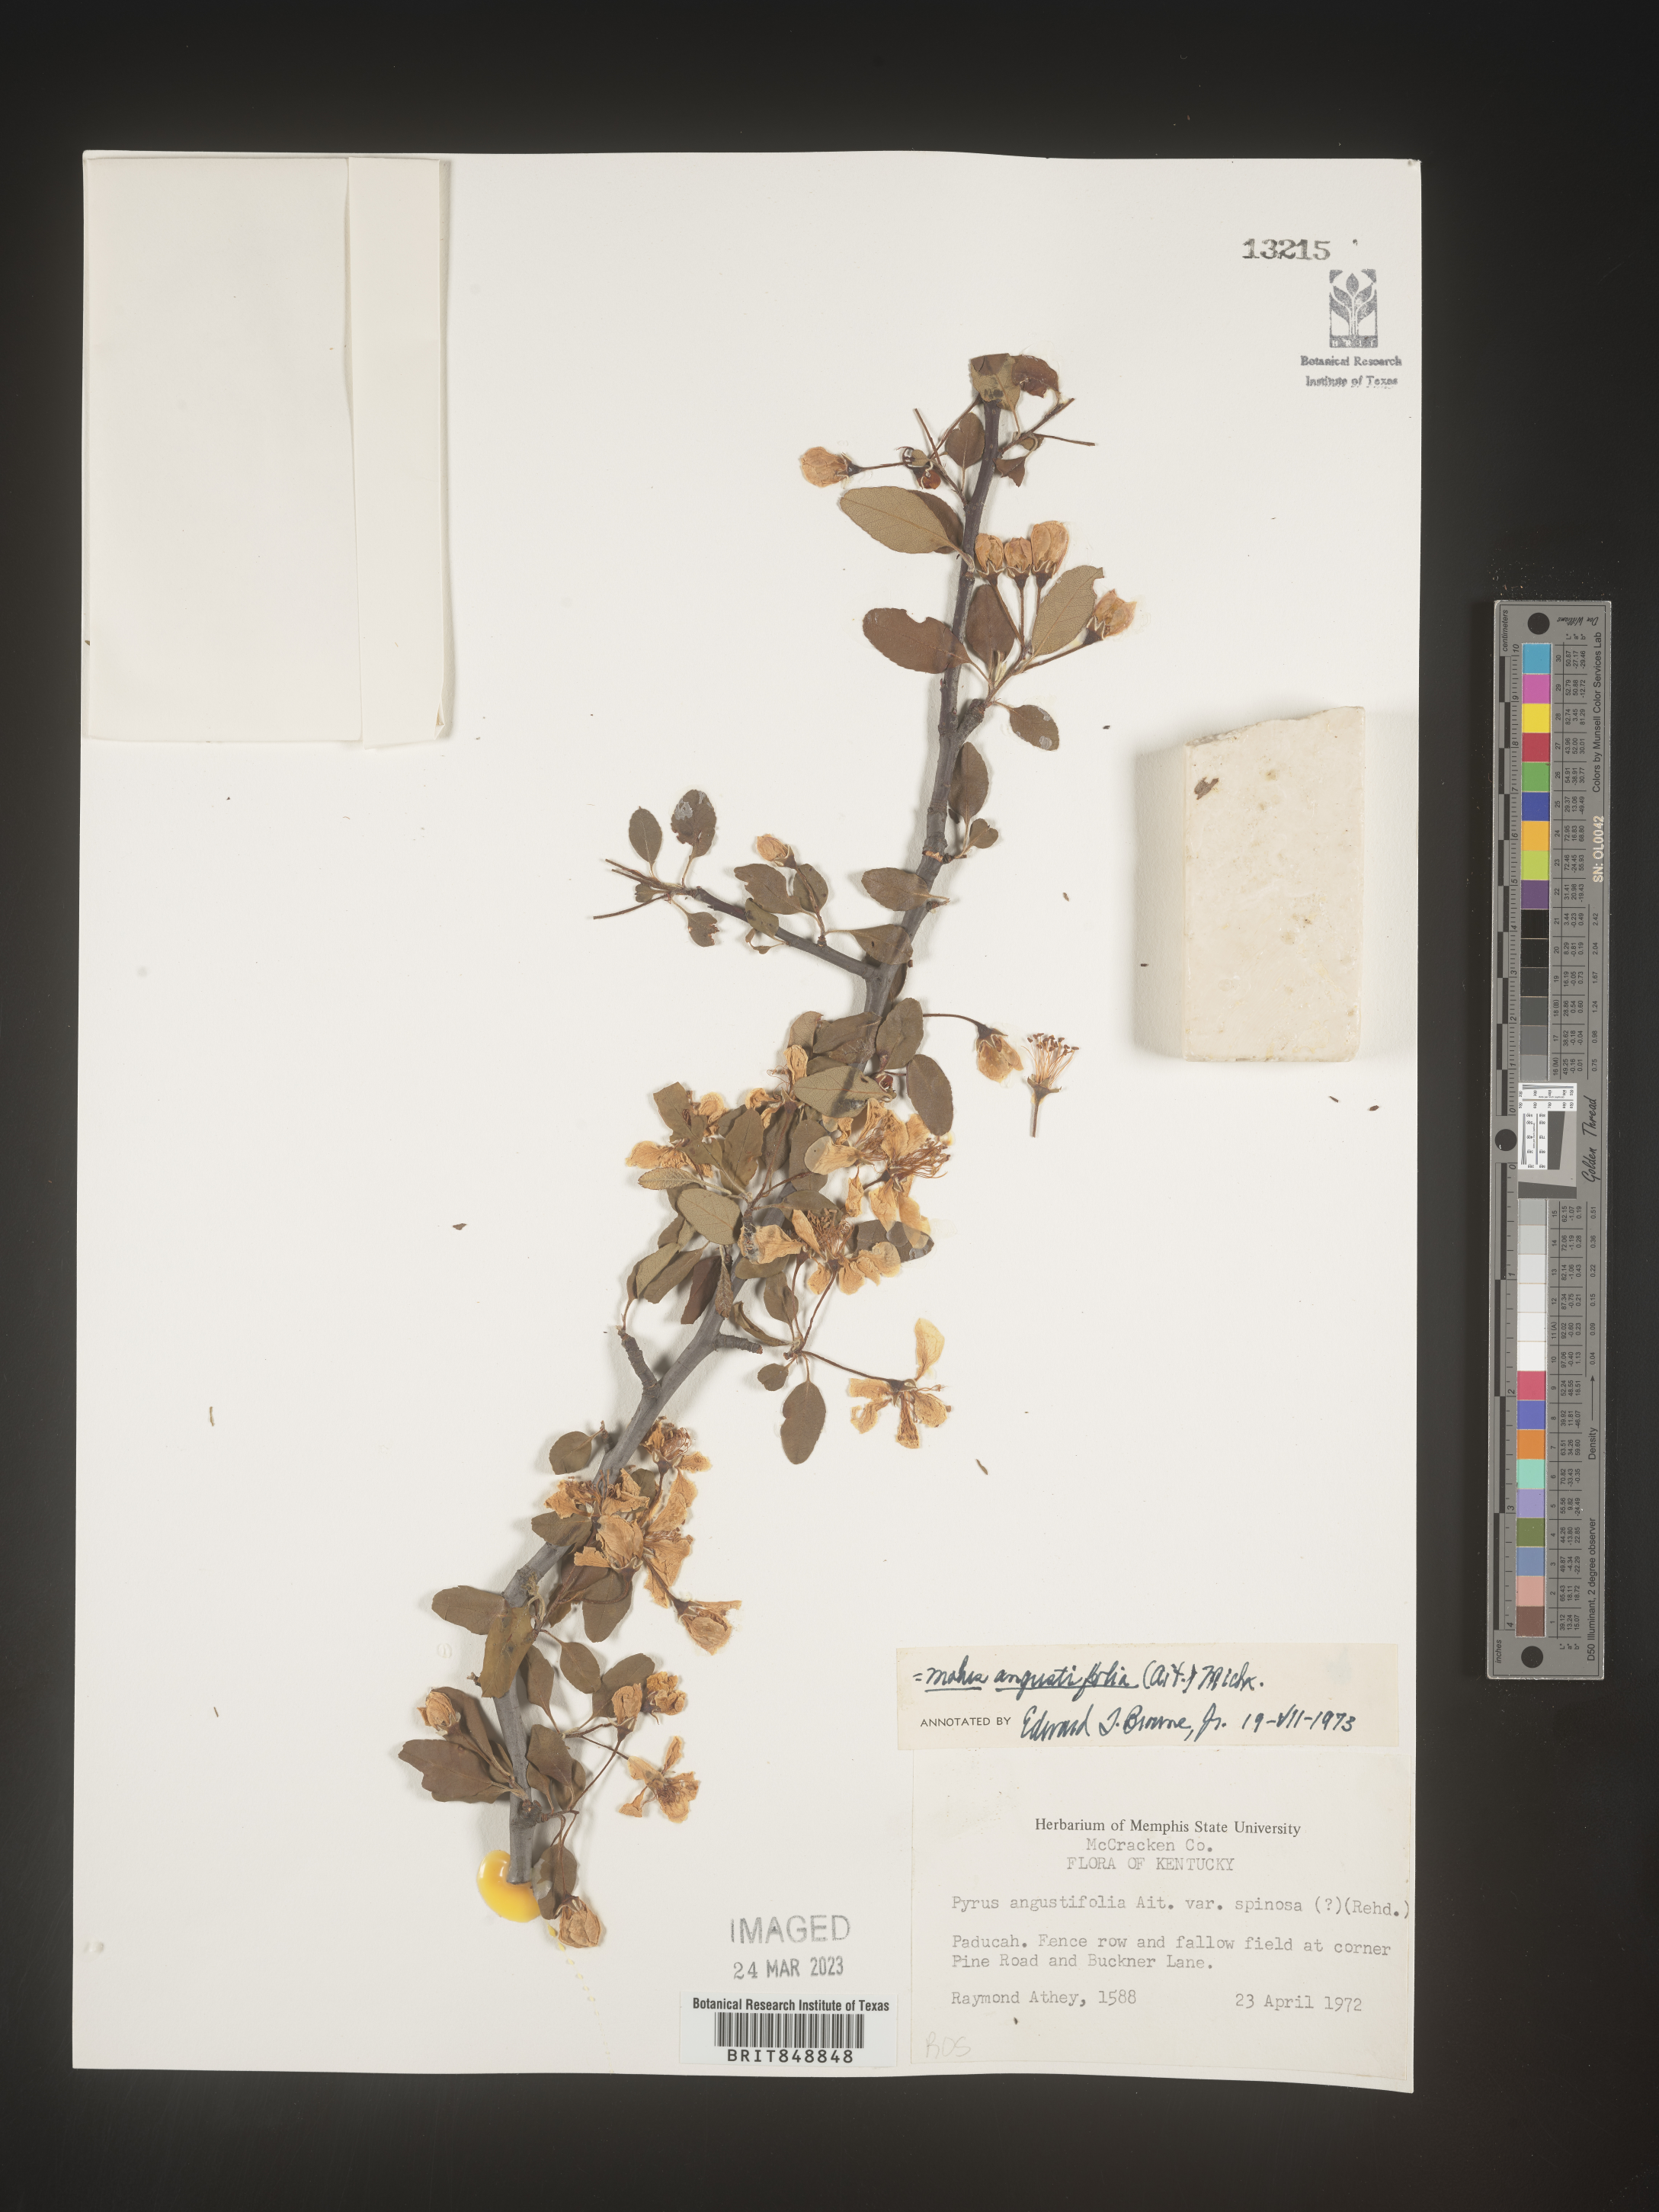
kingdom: Plantae
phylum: Tracheophyta
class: Magnoliopsida
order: Rosales
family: Rosaceae
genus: Malus
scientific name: Malus angustifolia
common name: Southern crab apple
